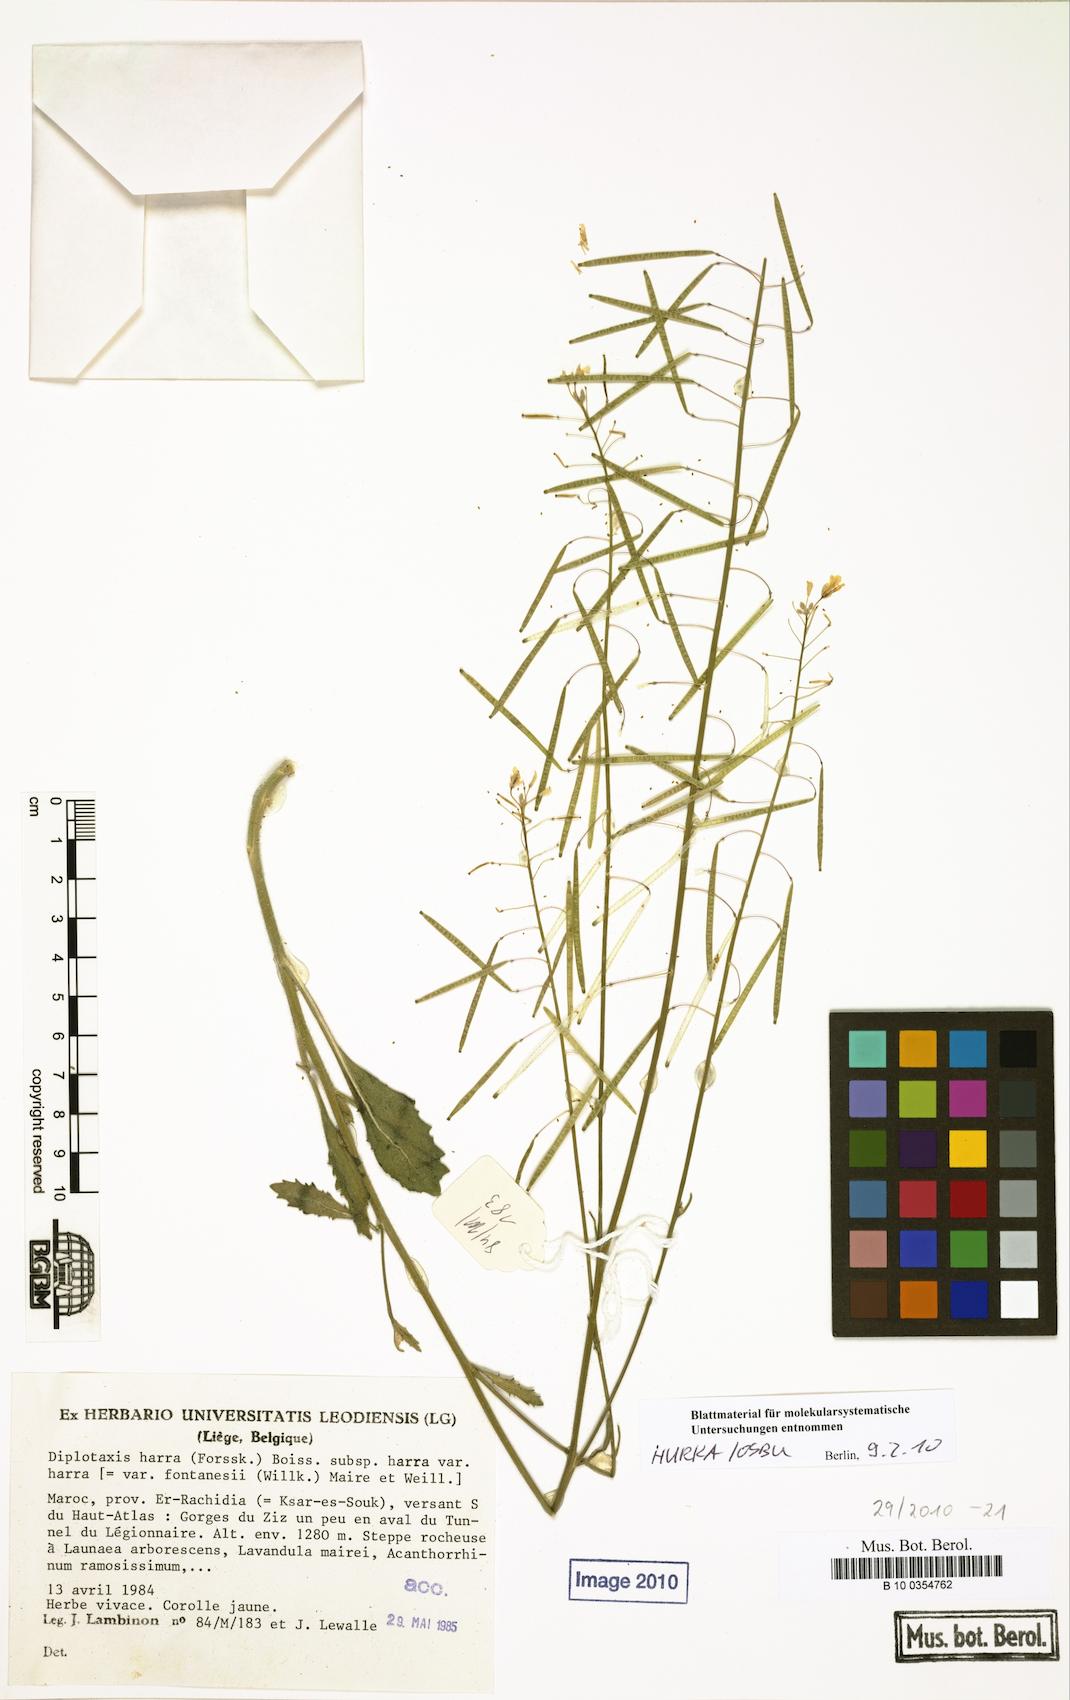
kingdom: Plantae
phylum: Tracheophyta
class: Magnoliopsida
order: Brassicales
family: Brassicaceae
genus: Diplotaxis
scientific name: Diplotaxis harra
